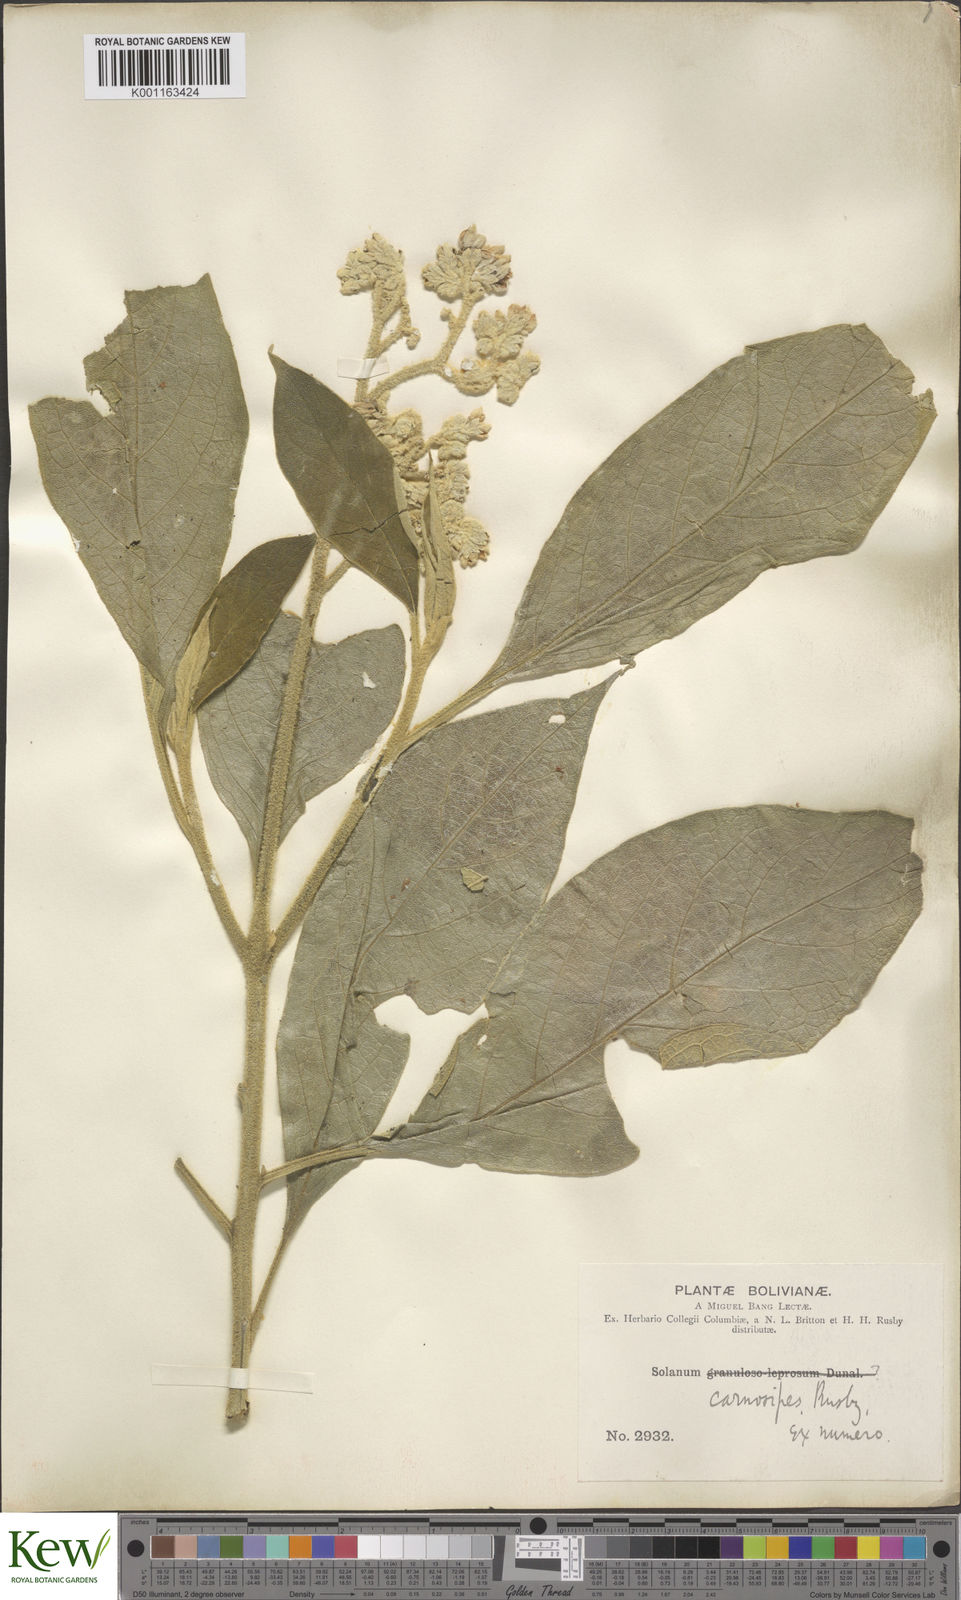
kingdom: Plantae
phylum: Tracheophyta
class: Magnoliopsida
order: Solanales
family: Solanaceae
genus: Solanum
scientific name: Solanum riparium
